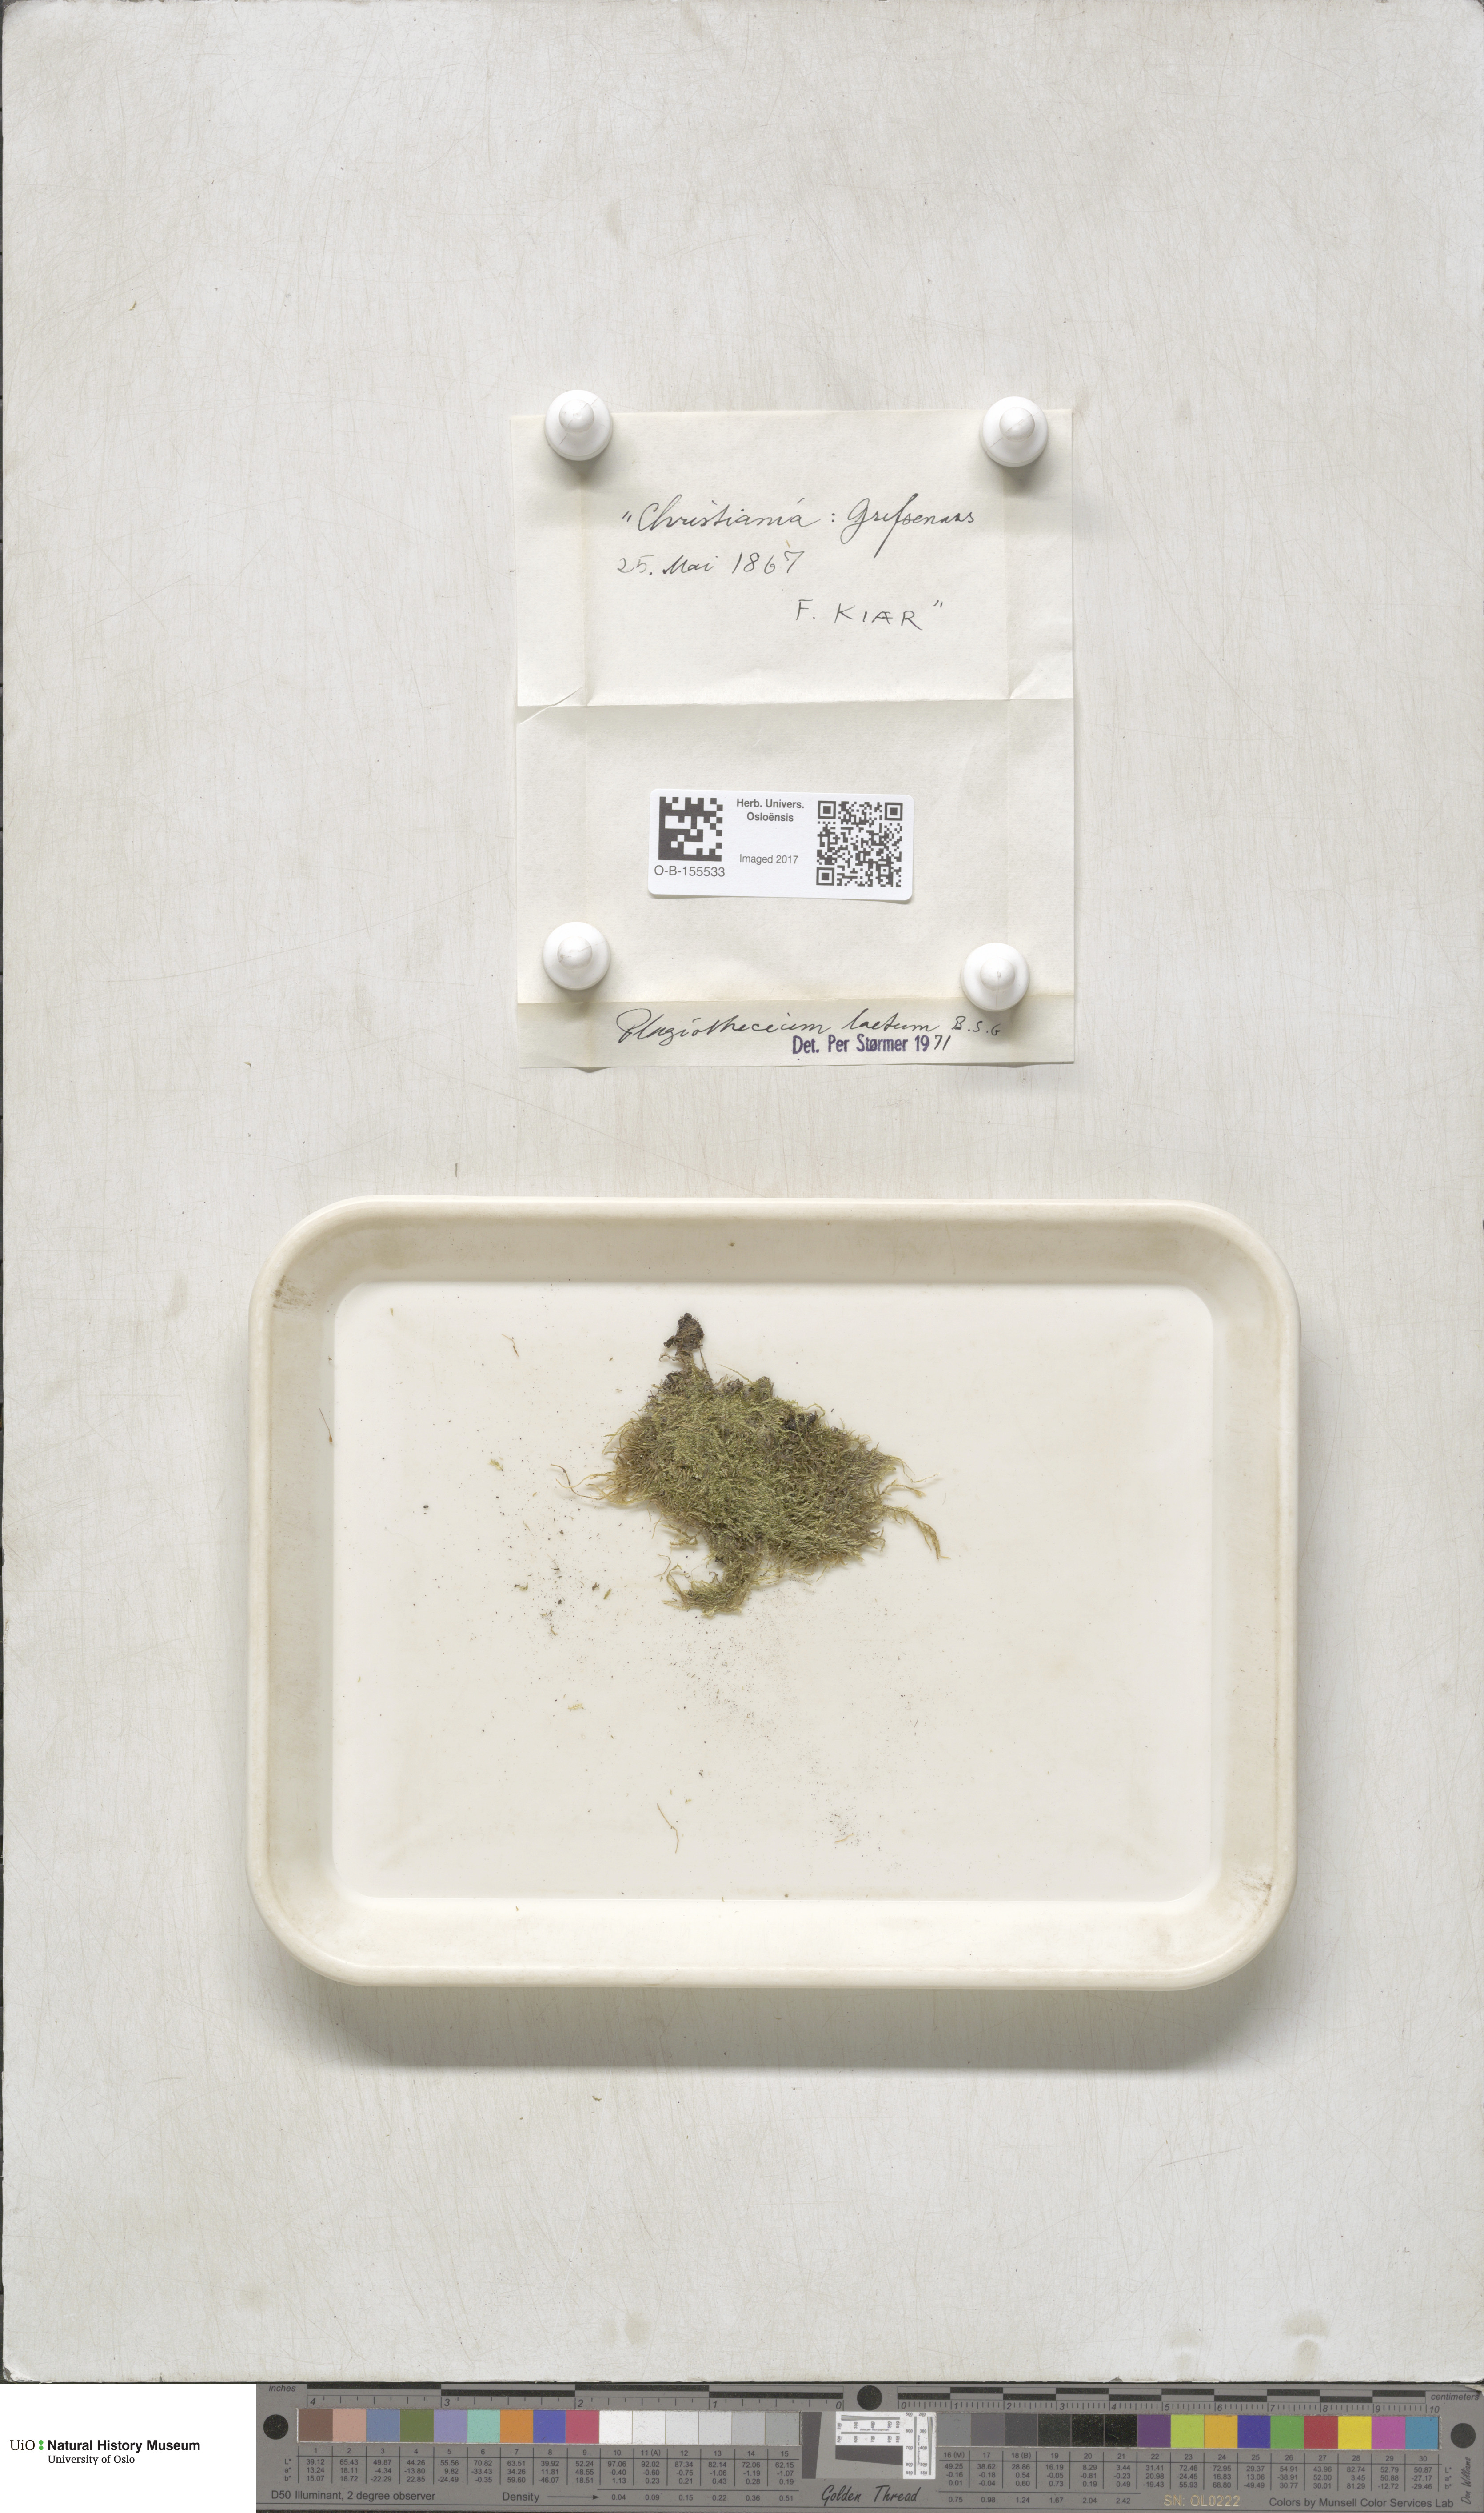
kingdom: Plantae
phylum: Bryophyta
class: Bryopsida
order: Hypnales
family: Plagiotheciaceae
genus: Plagiothecium
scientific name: Plagiothecium laetum
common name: Bright silk moss
